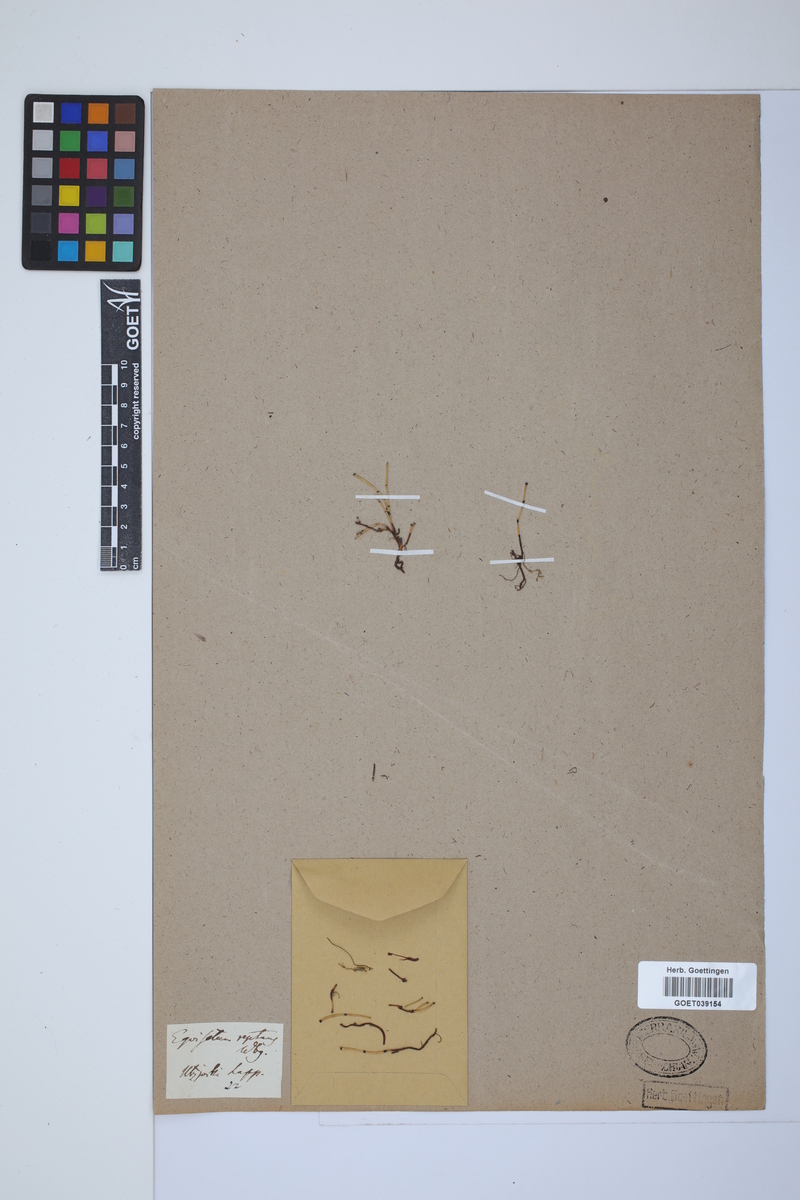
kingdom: Plantae
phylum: Tracheophyta
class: Polypodiopsida
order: Equisetales
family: Equisetaceae
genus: Equisetum
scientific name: Equisetum scirpoides
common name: Delicate horsetail
